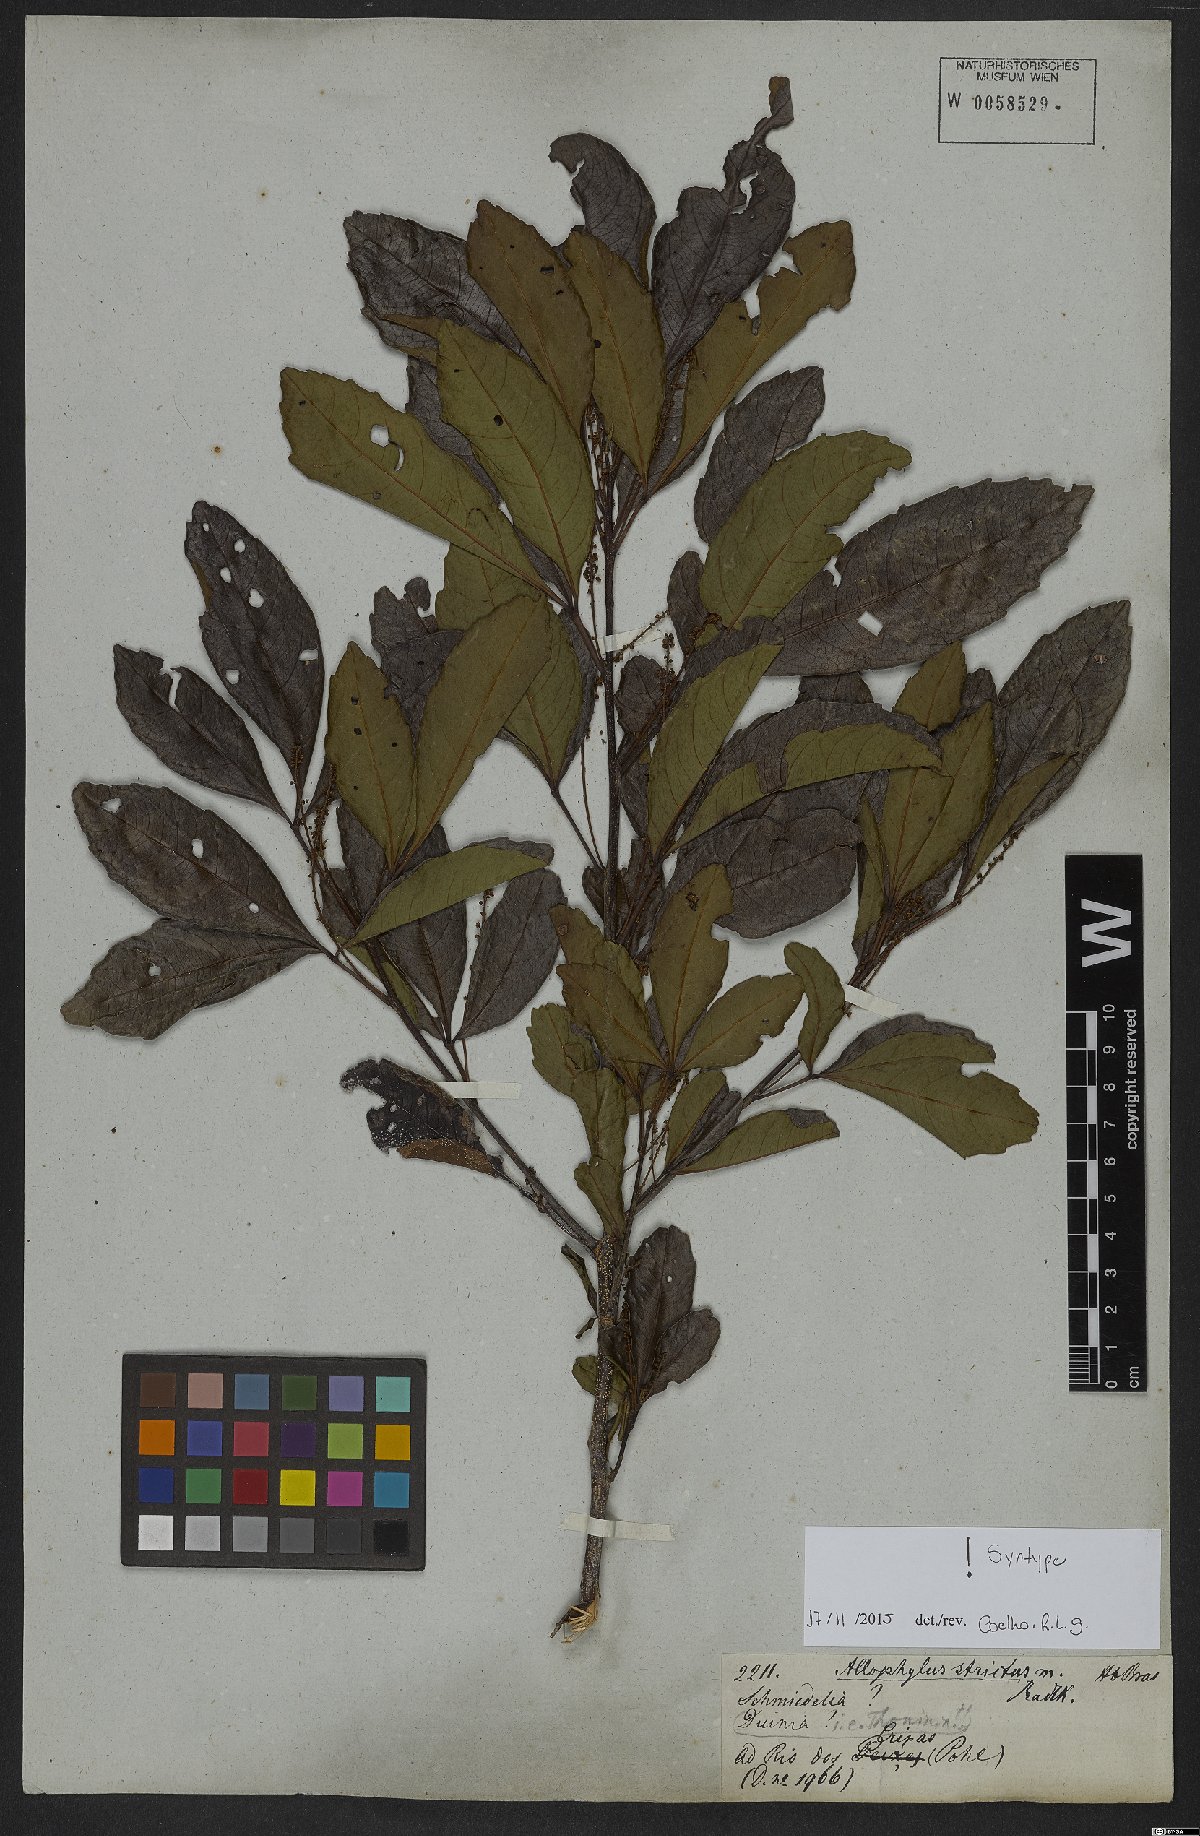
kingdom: Plantae
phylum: Tracheophyta
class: Magnoliopsida
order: Sapindales
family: Sapindaceae
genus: Allophylus
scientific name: Allophylus strictus
